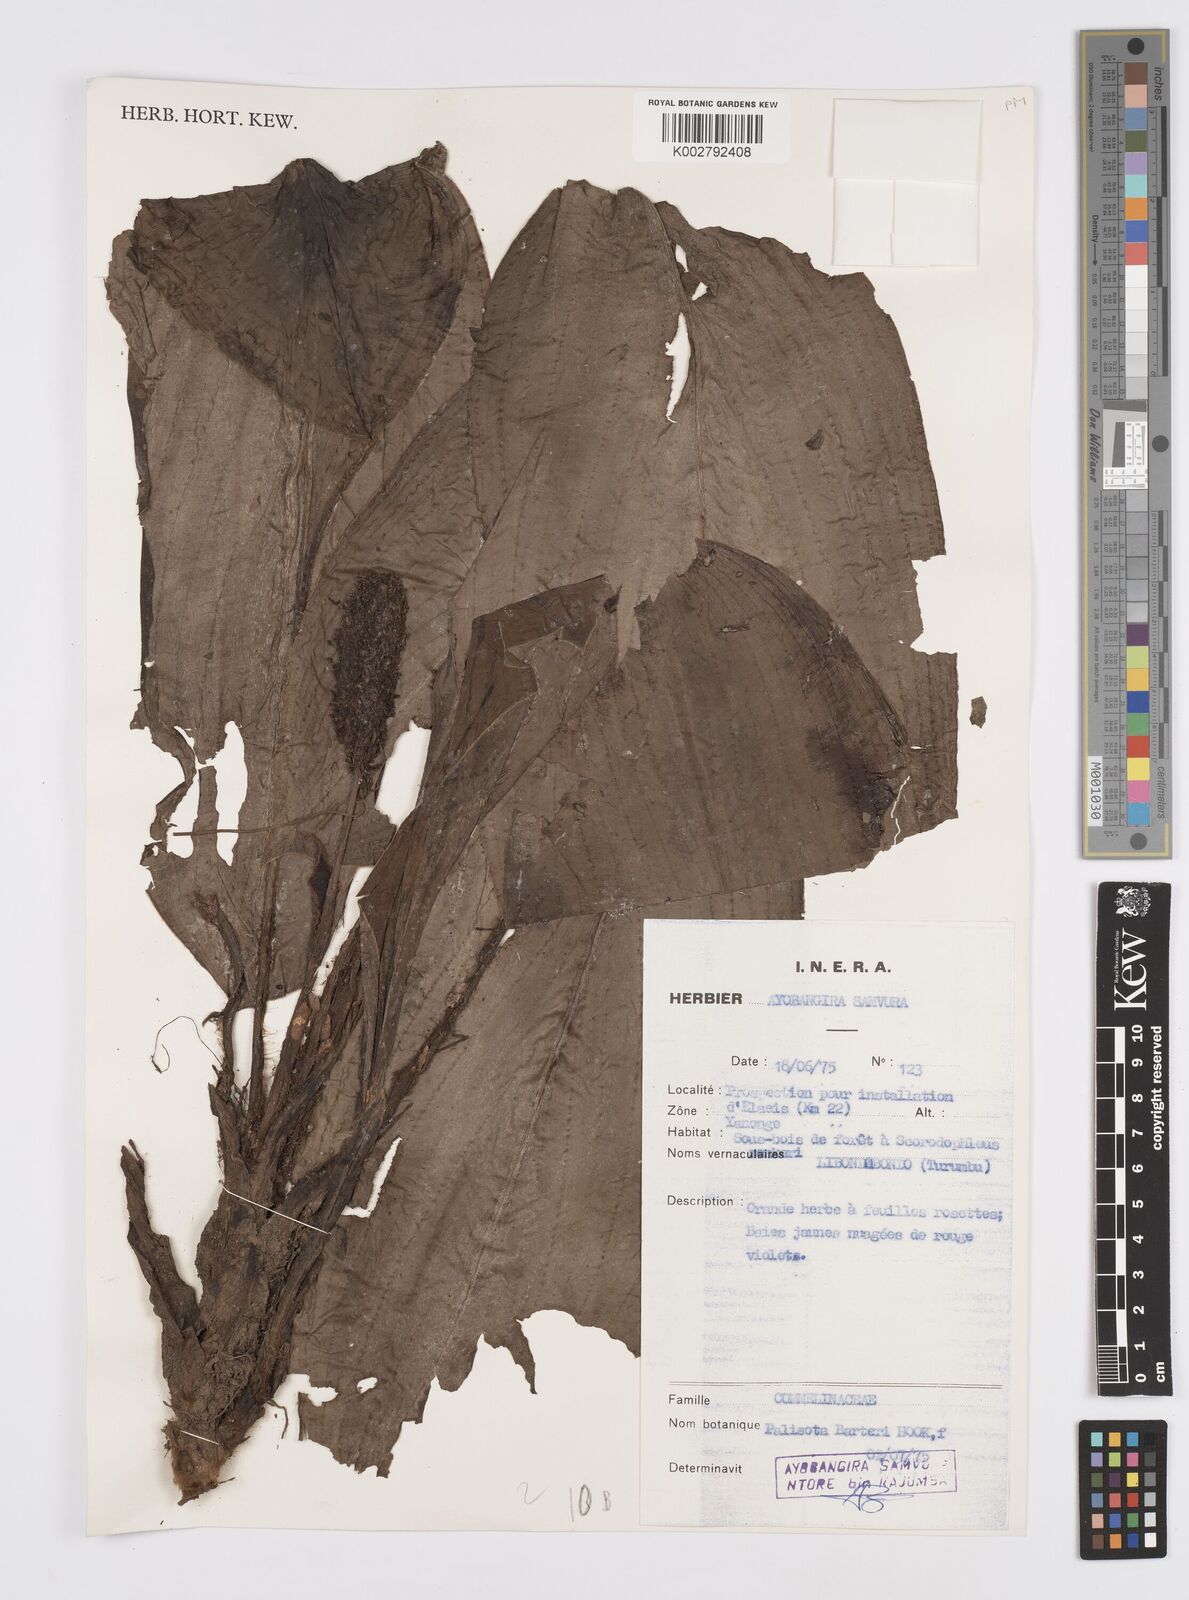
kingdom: Plantae
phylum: Tracheophyta
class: Liliopsida
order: Commelinales
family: Commelinaceae
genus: Palisota
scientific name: Palisota barteri
